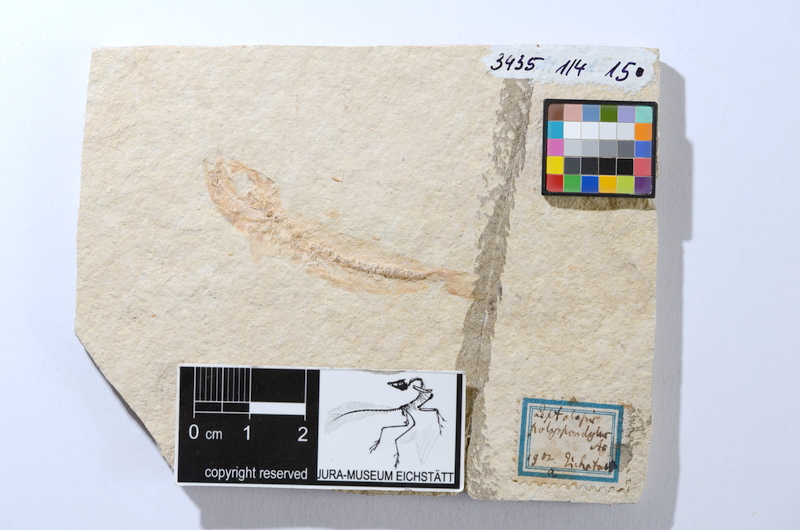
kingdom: Animalia
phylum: Chordata
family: Ascalaboidae
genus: Tharsis
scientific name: Tharsis dubius
